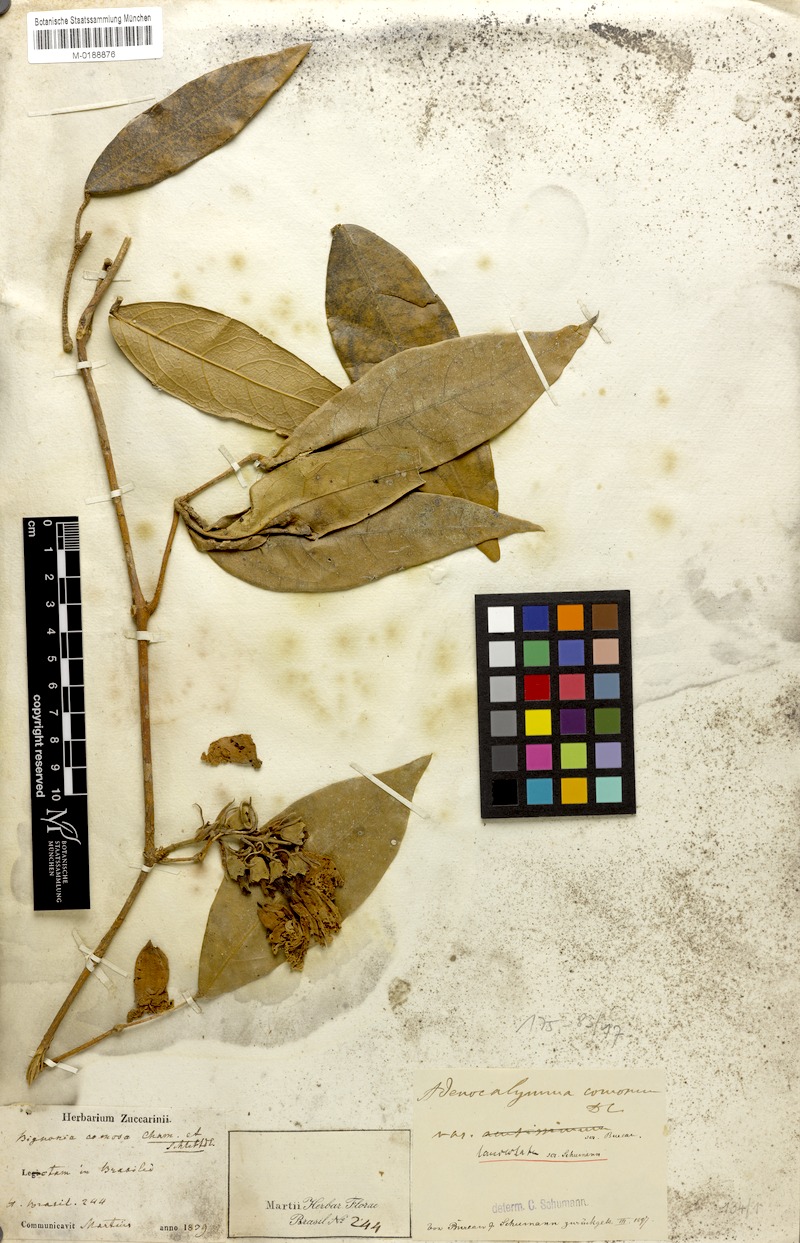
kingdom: Plantae
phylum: Tracheophyta
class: Magnoliopsida
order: Lamiales
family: Bignoniaceae
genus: Adenocalymma
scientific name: Adenocalymma acutissimum
